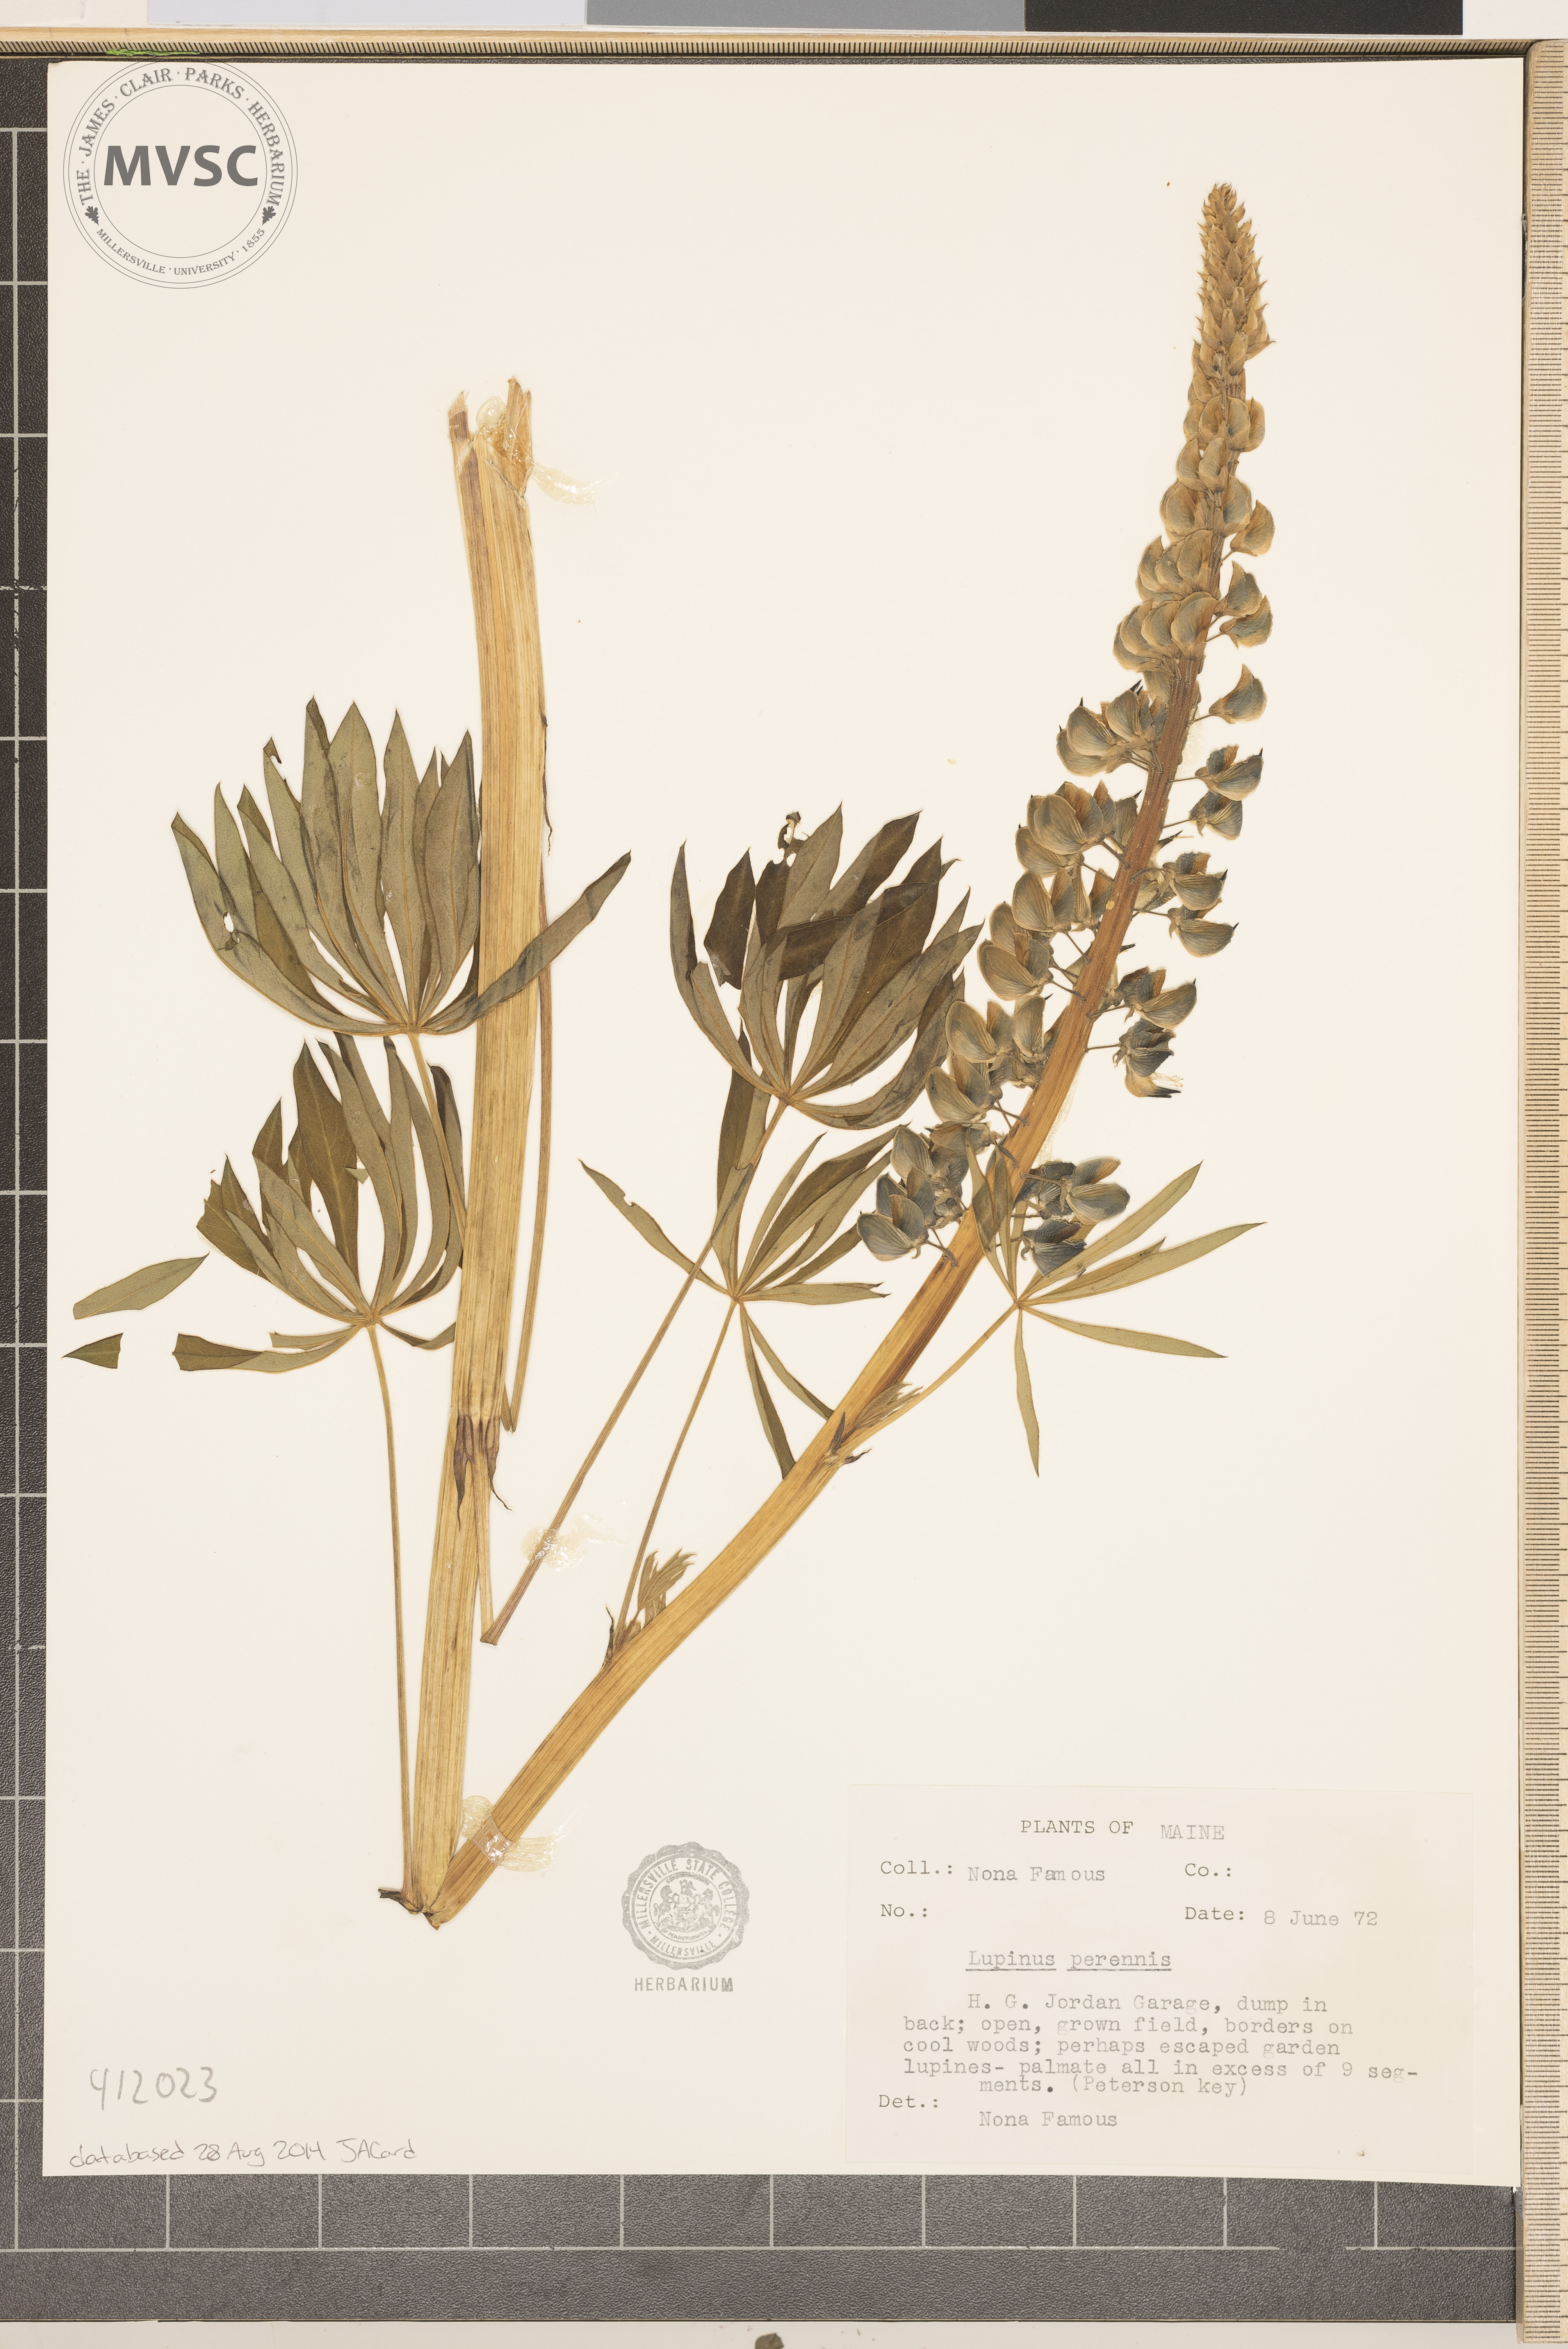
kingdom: Plantae
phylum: Tracheophyta
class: Magnoliopsida
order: Fabales
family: Fabaceae
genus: Lupinus
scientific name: Lupinus perennis
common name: Sundial lupine
